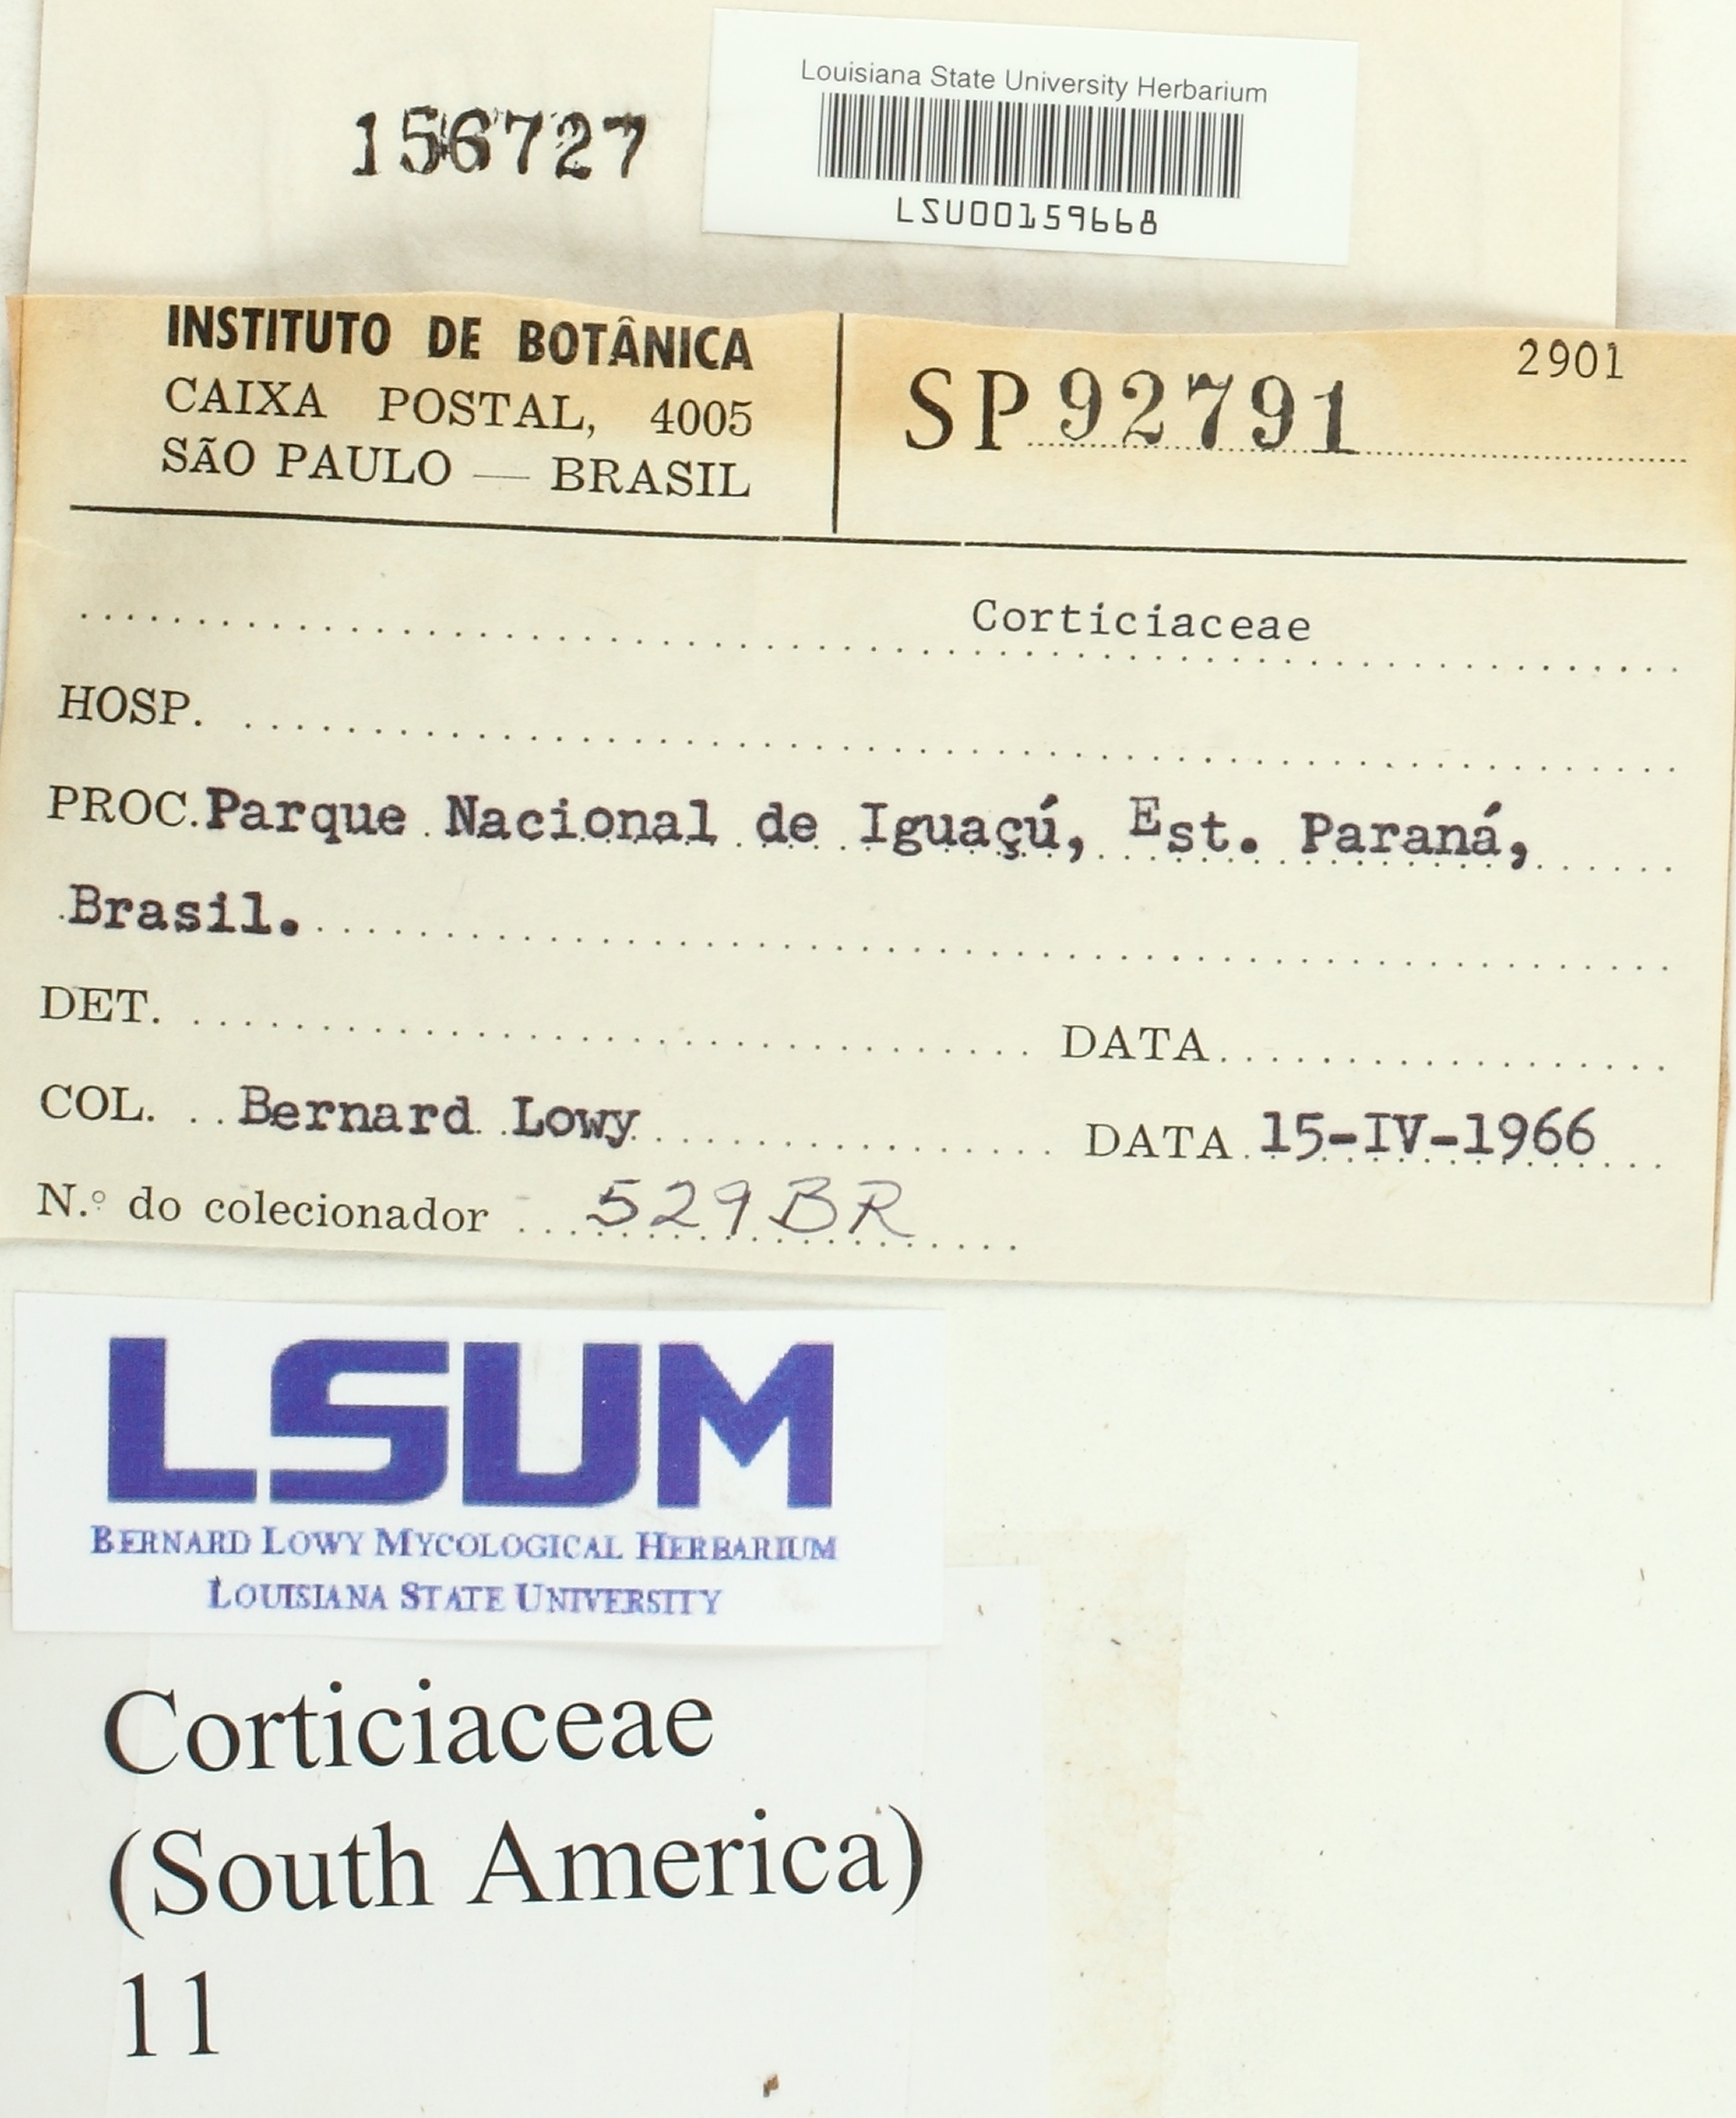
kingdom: Fungi
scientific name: Fungi
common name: Fungi
